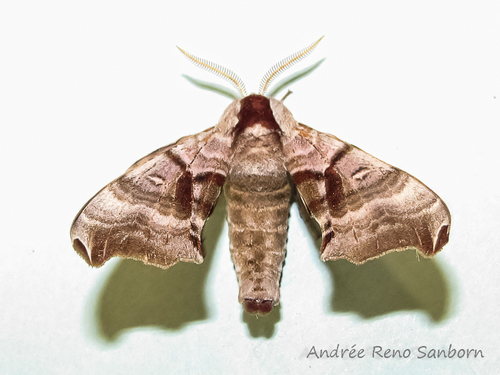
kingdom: Animalia
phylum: Arthropoda
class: Insecta
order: Lepidoptera
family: Sphingidae
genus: Smerinthus
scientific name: Smerinthus jamaicensis
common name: Twin spotted sphinx
